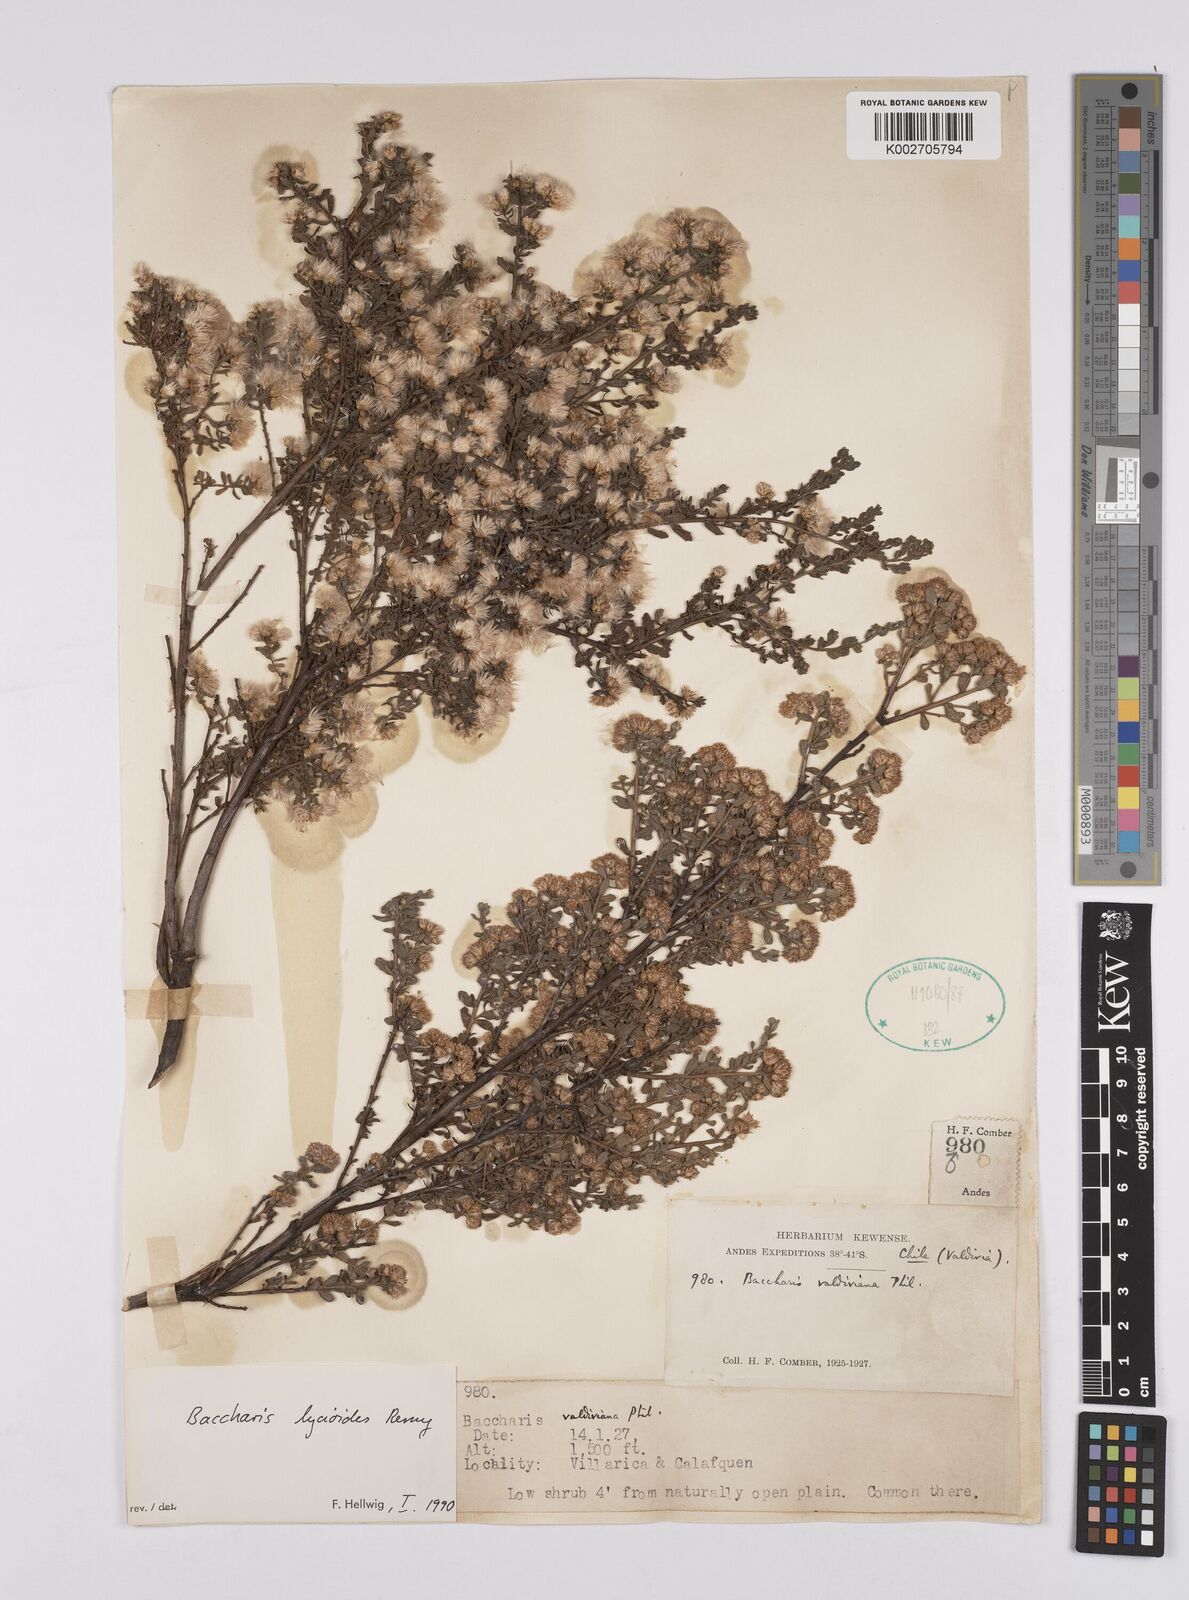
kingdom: Plantae
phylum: Tracheophyta
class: Magnoliopsida
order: Asterales
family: Asteraceae
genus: Baccharis
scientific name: Baccharis lycioides
